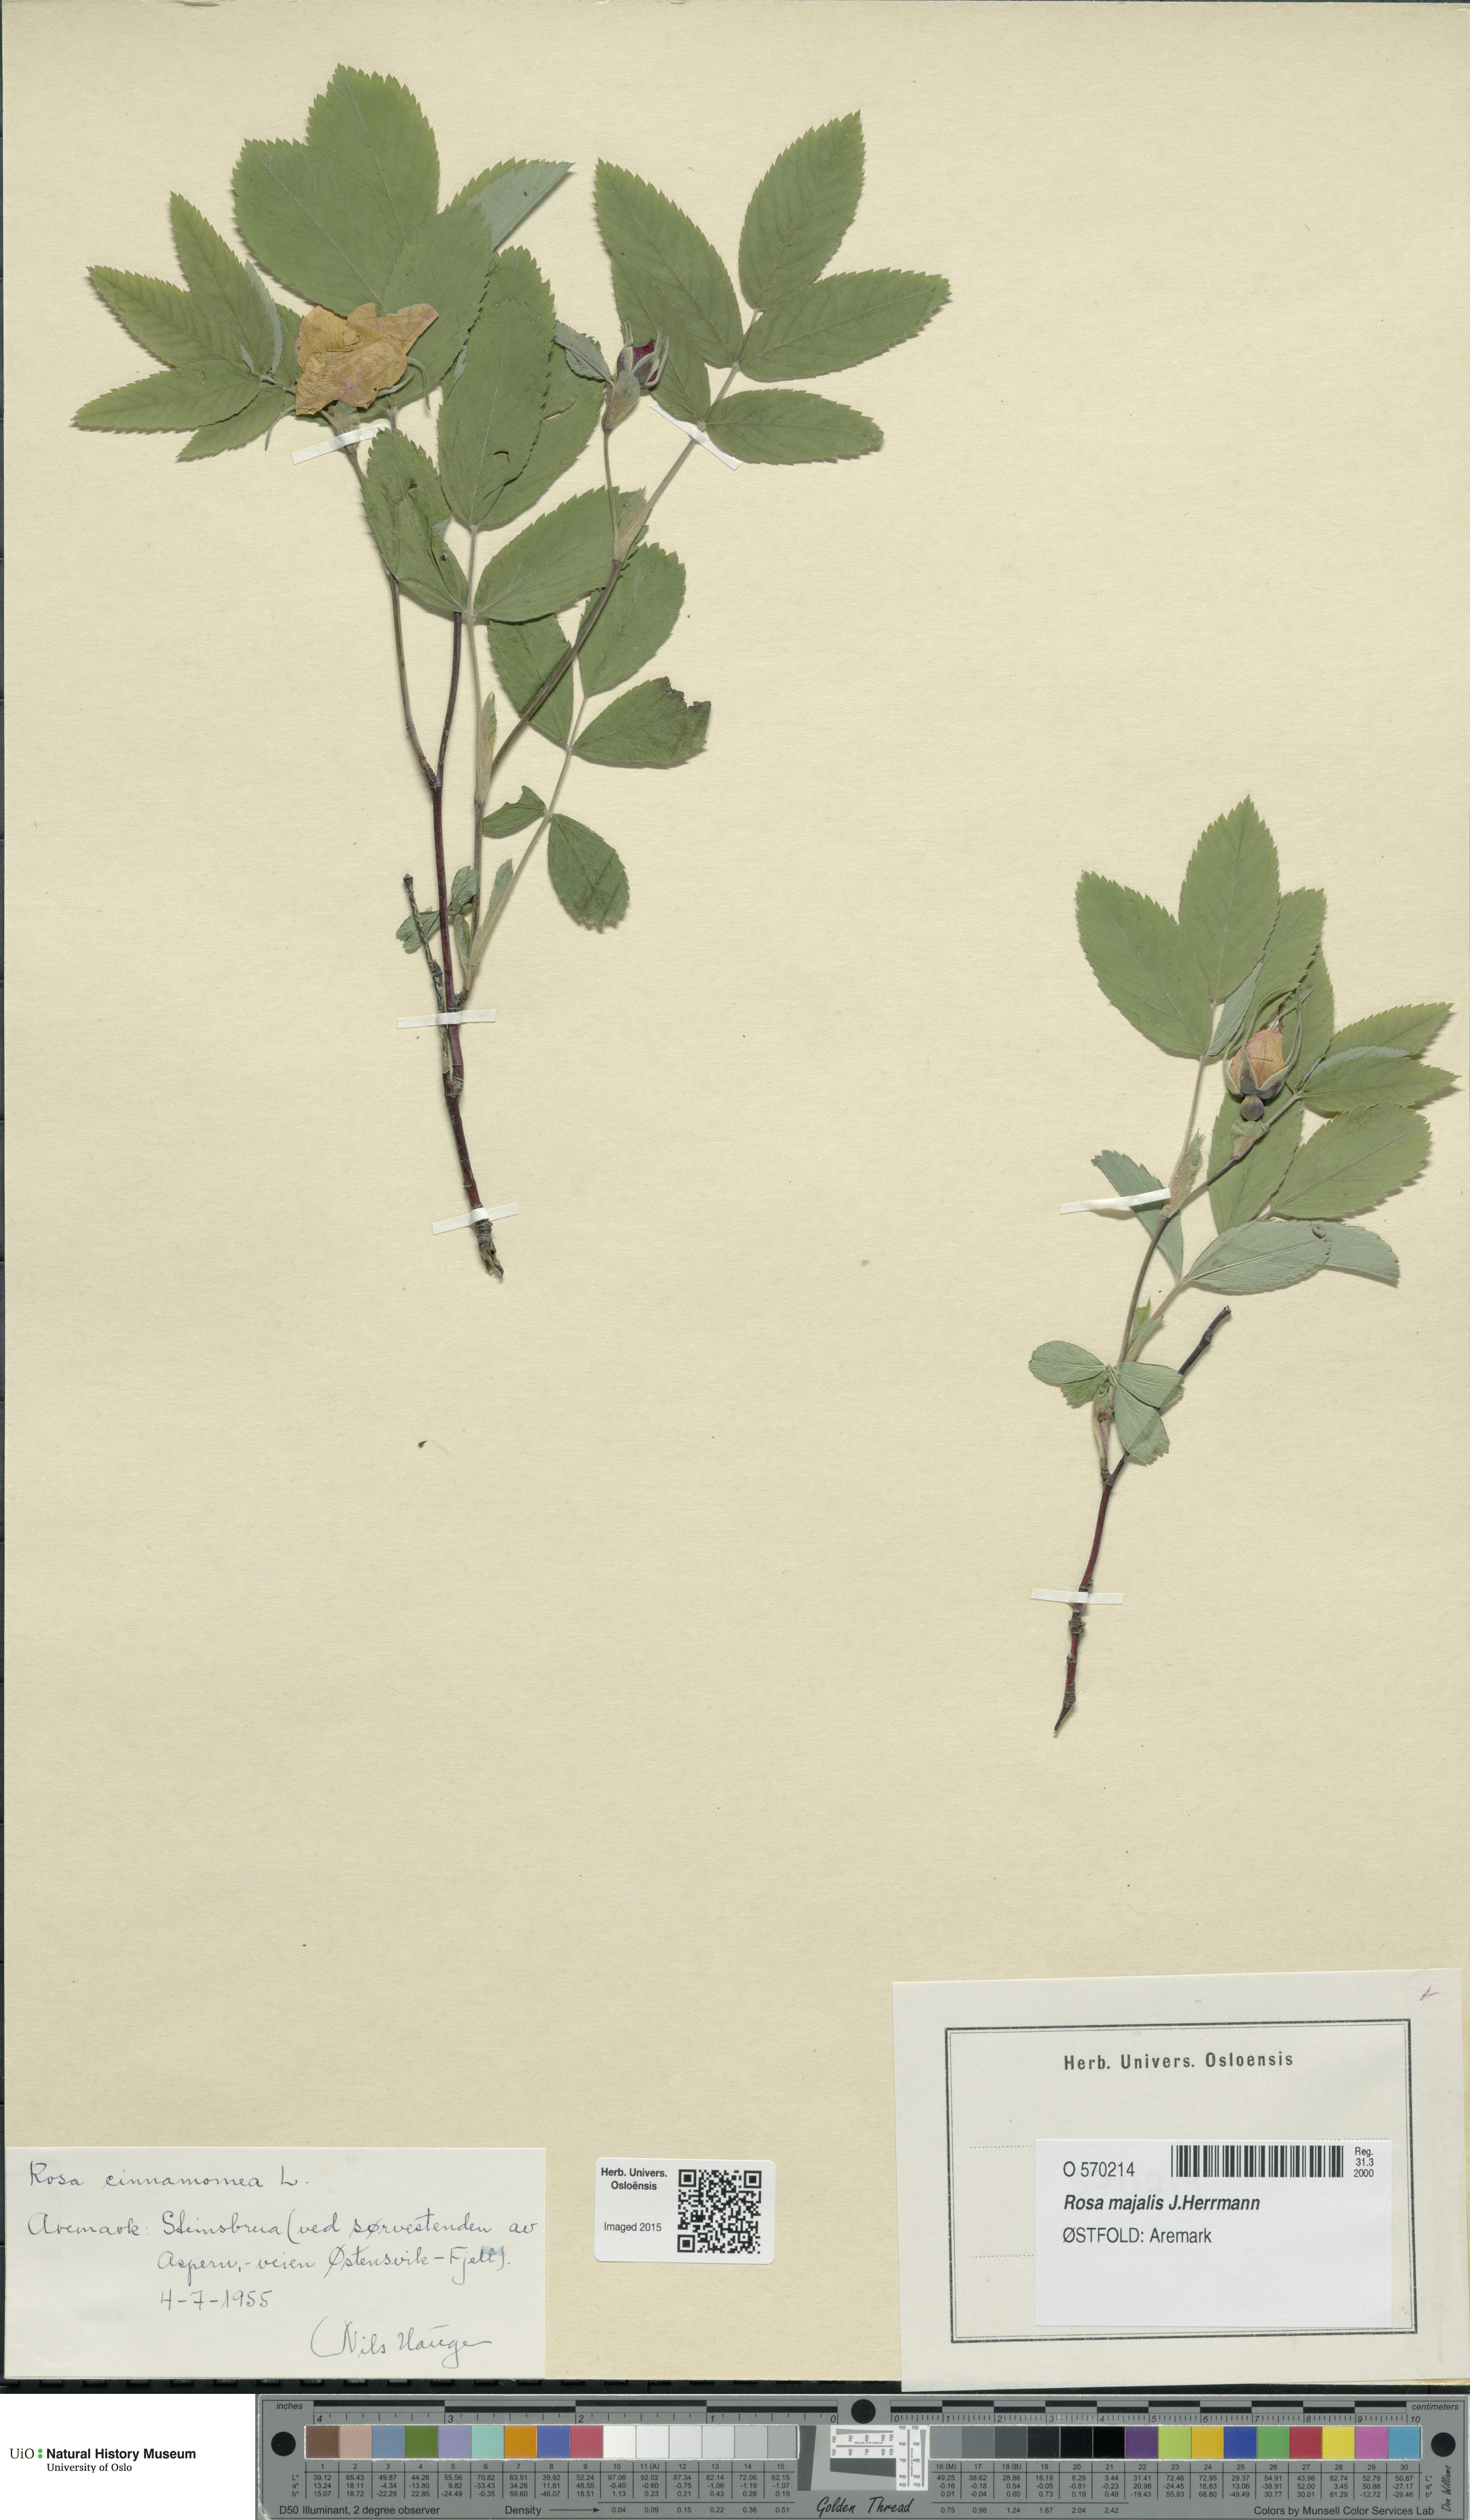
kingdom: Plantae
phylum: Tracheophyta
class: Magnoliopsida
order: Rosales
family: Rosaceae
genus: Rosa
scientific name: Rosa pendulina
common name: Alpine rose
